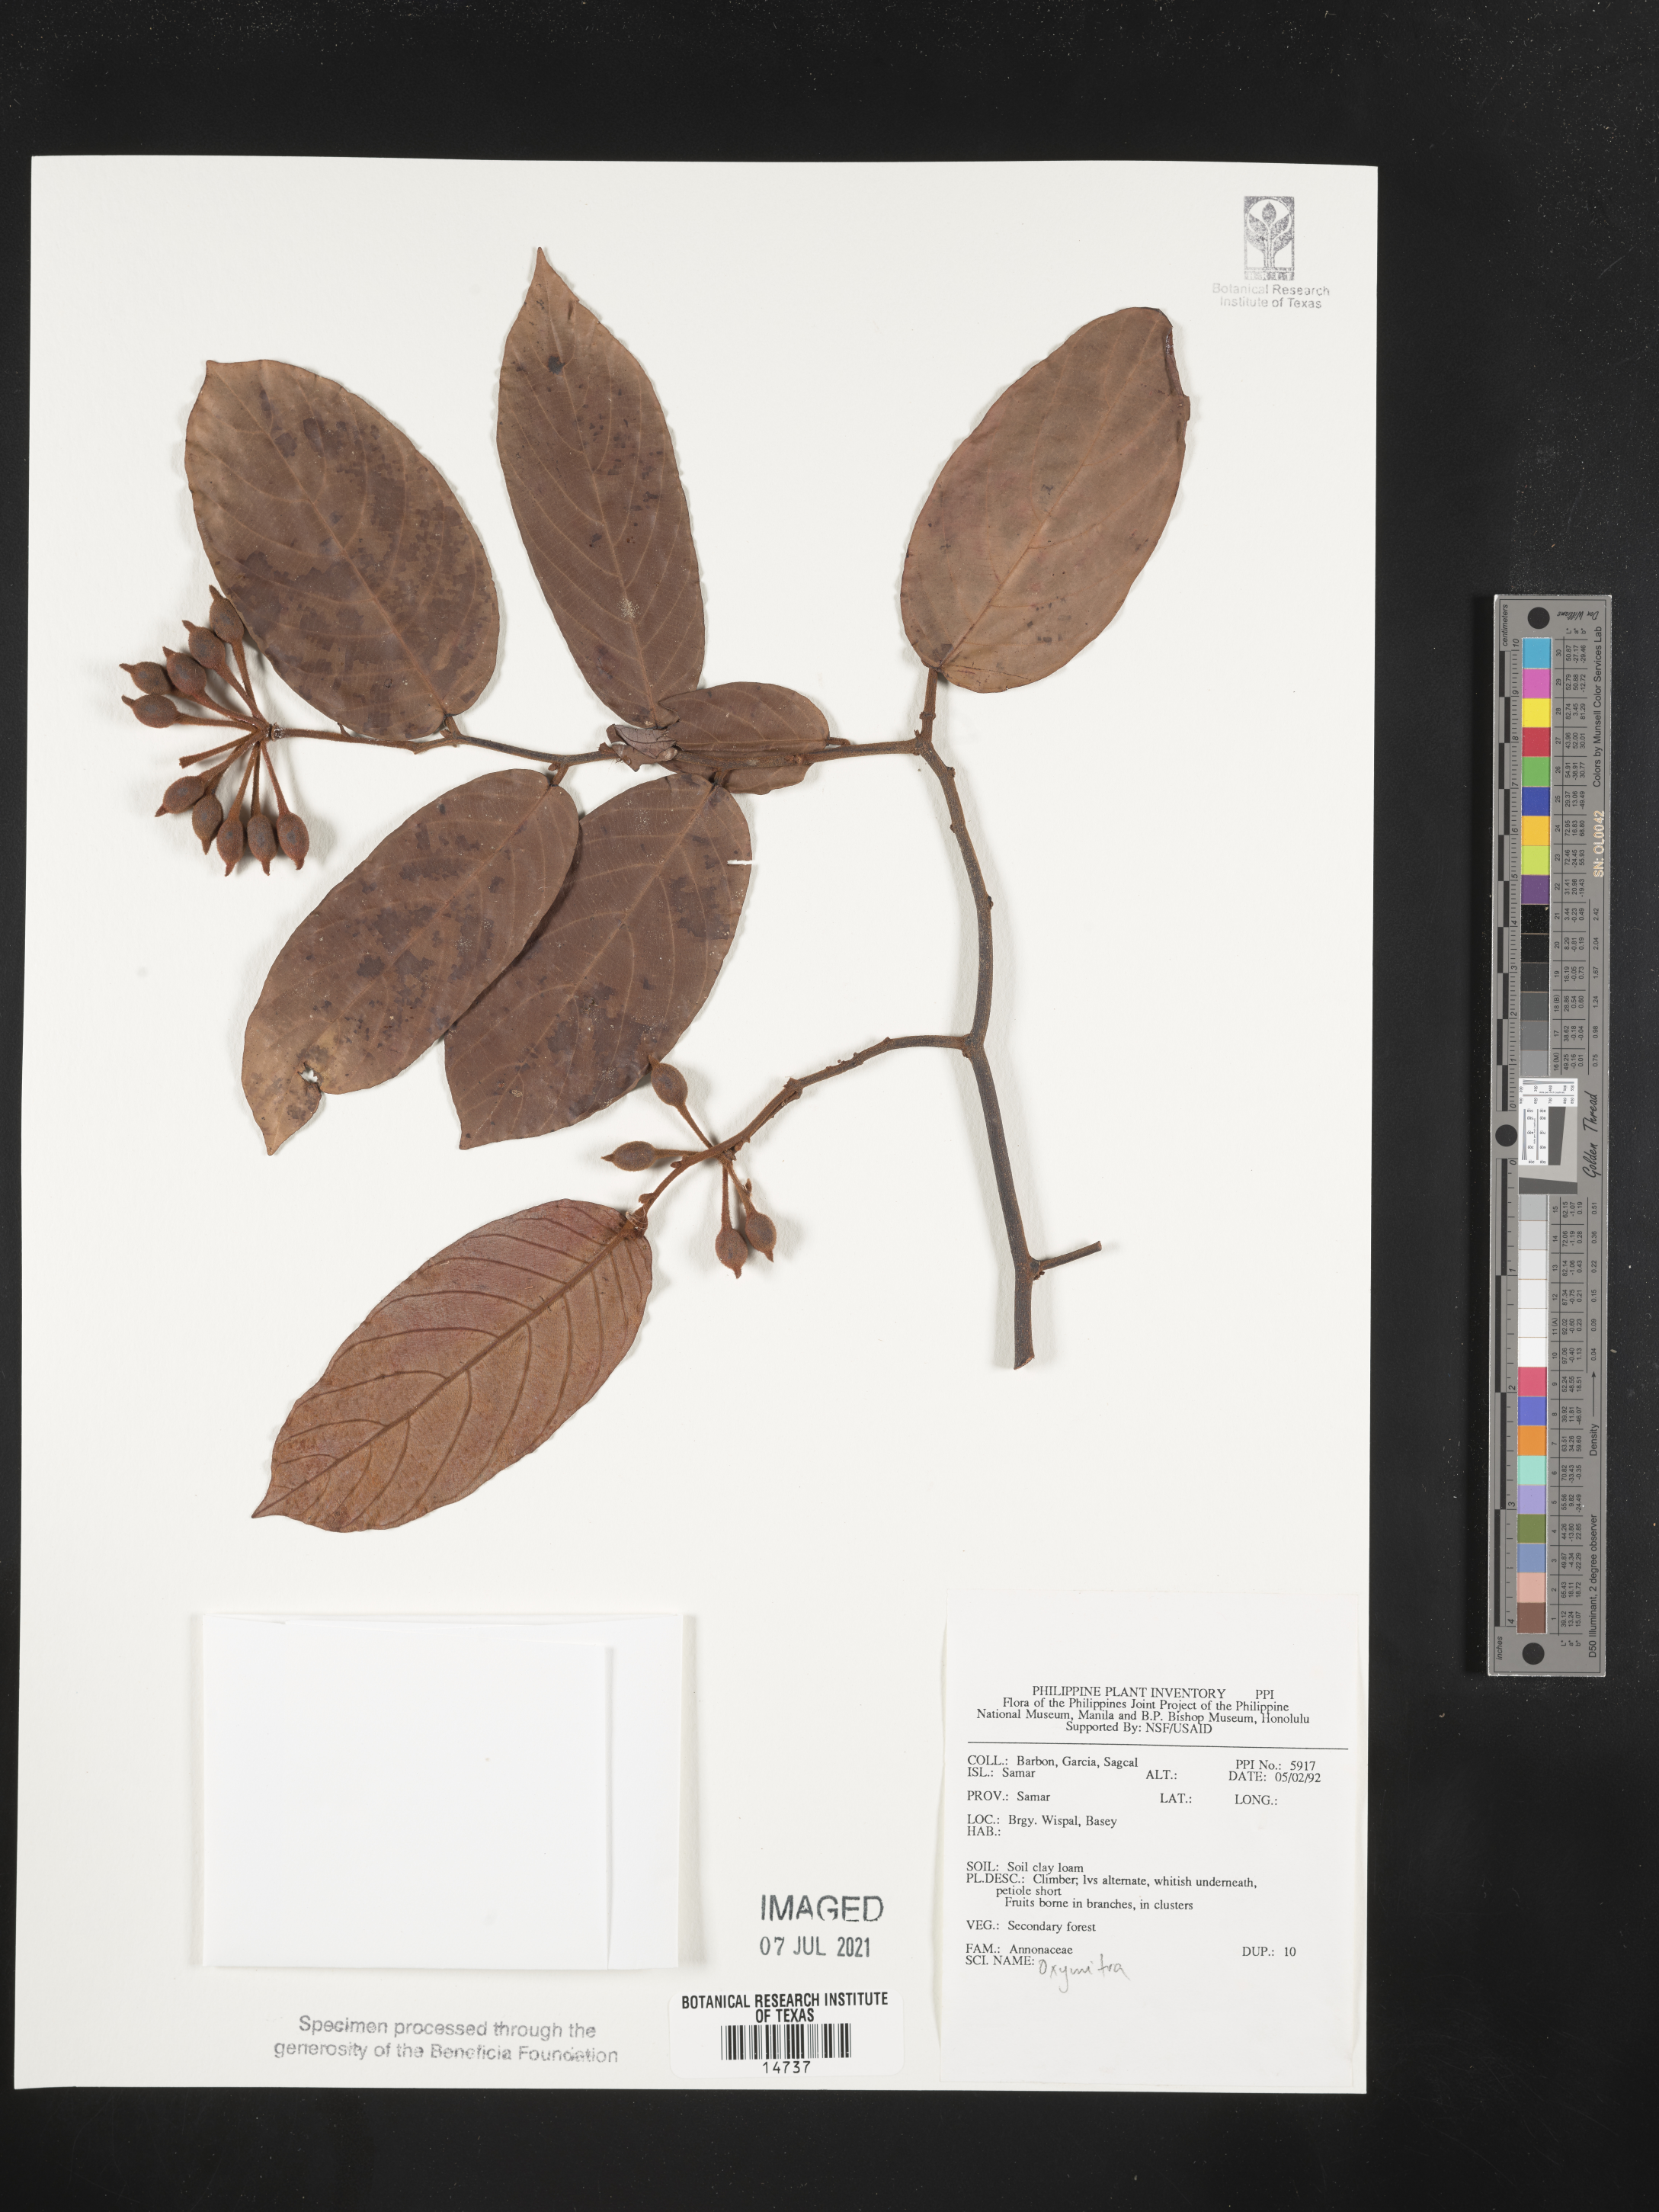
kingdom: Plantae
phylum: Marchantiophyta
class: Marchantiopsida
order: Marchantiales
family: Ricciaceae
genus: Oxymitra
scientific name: Oxymitra
